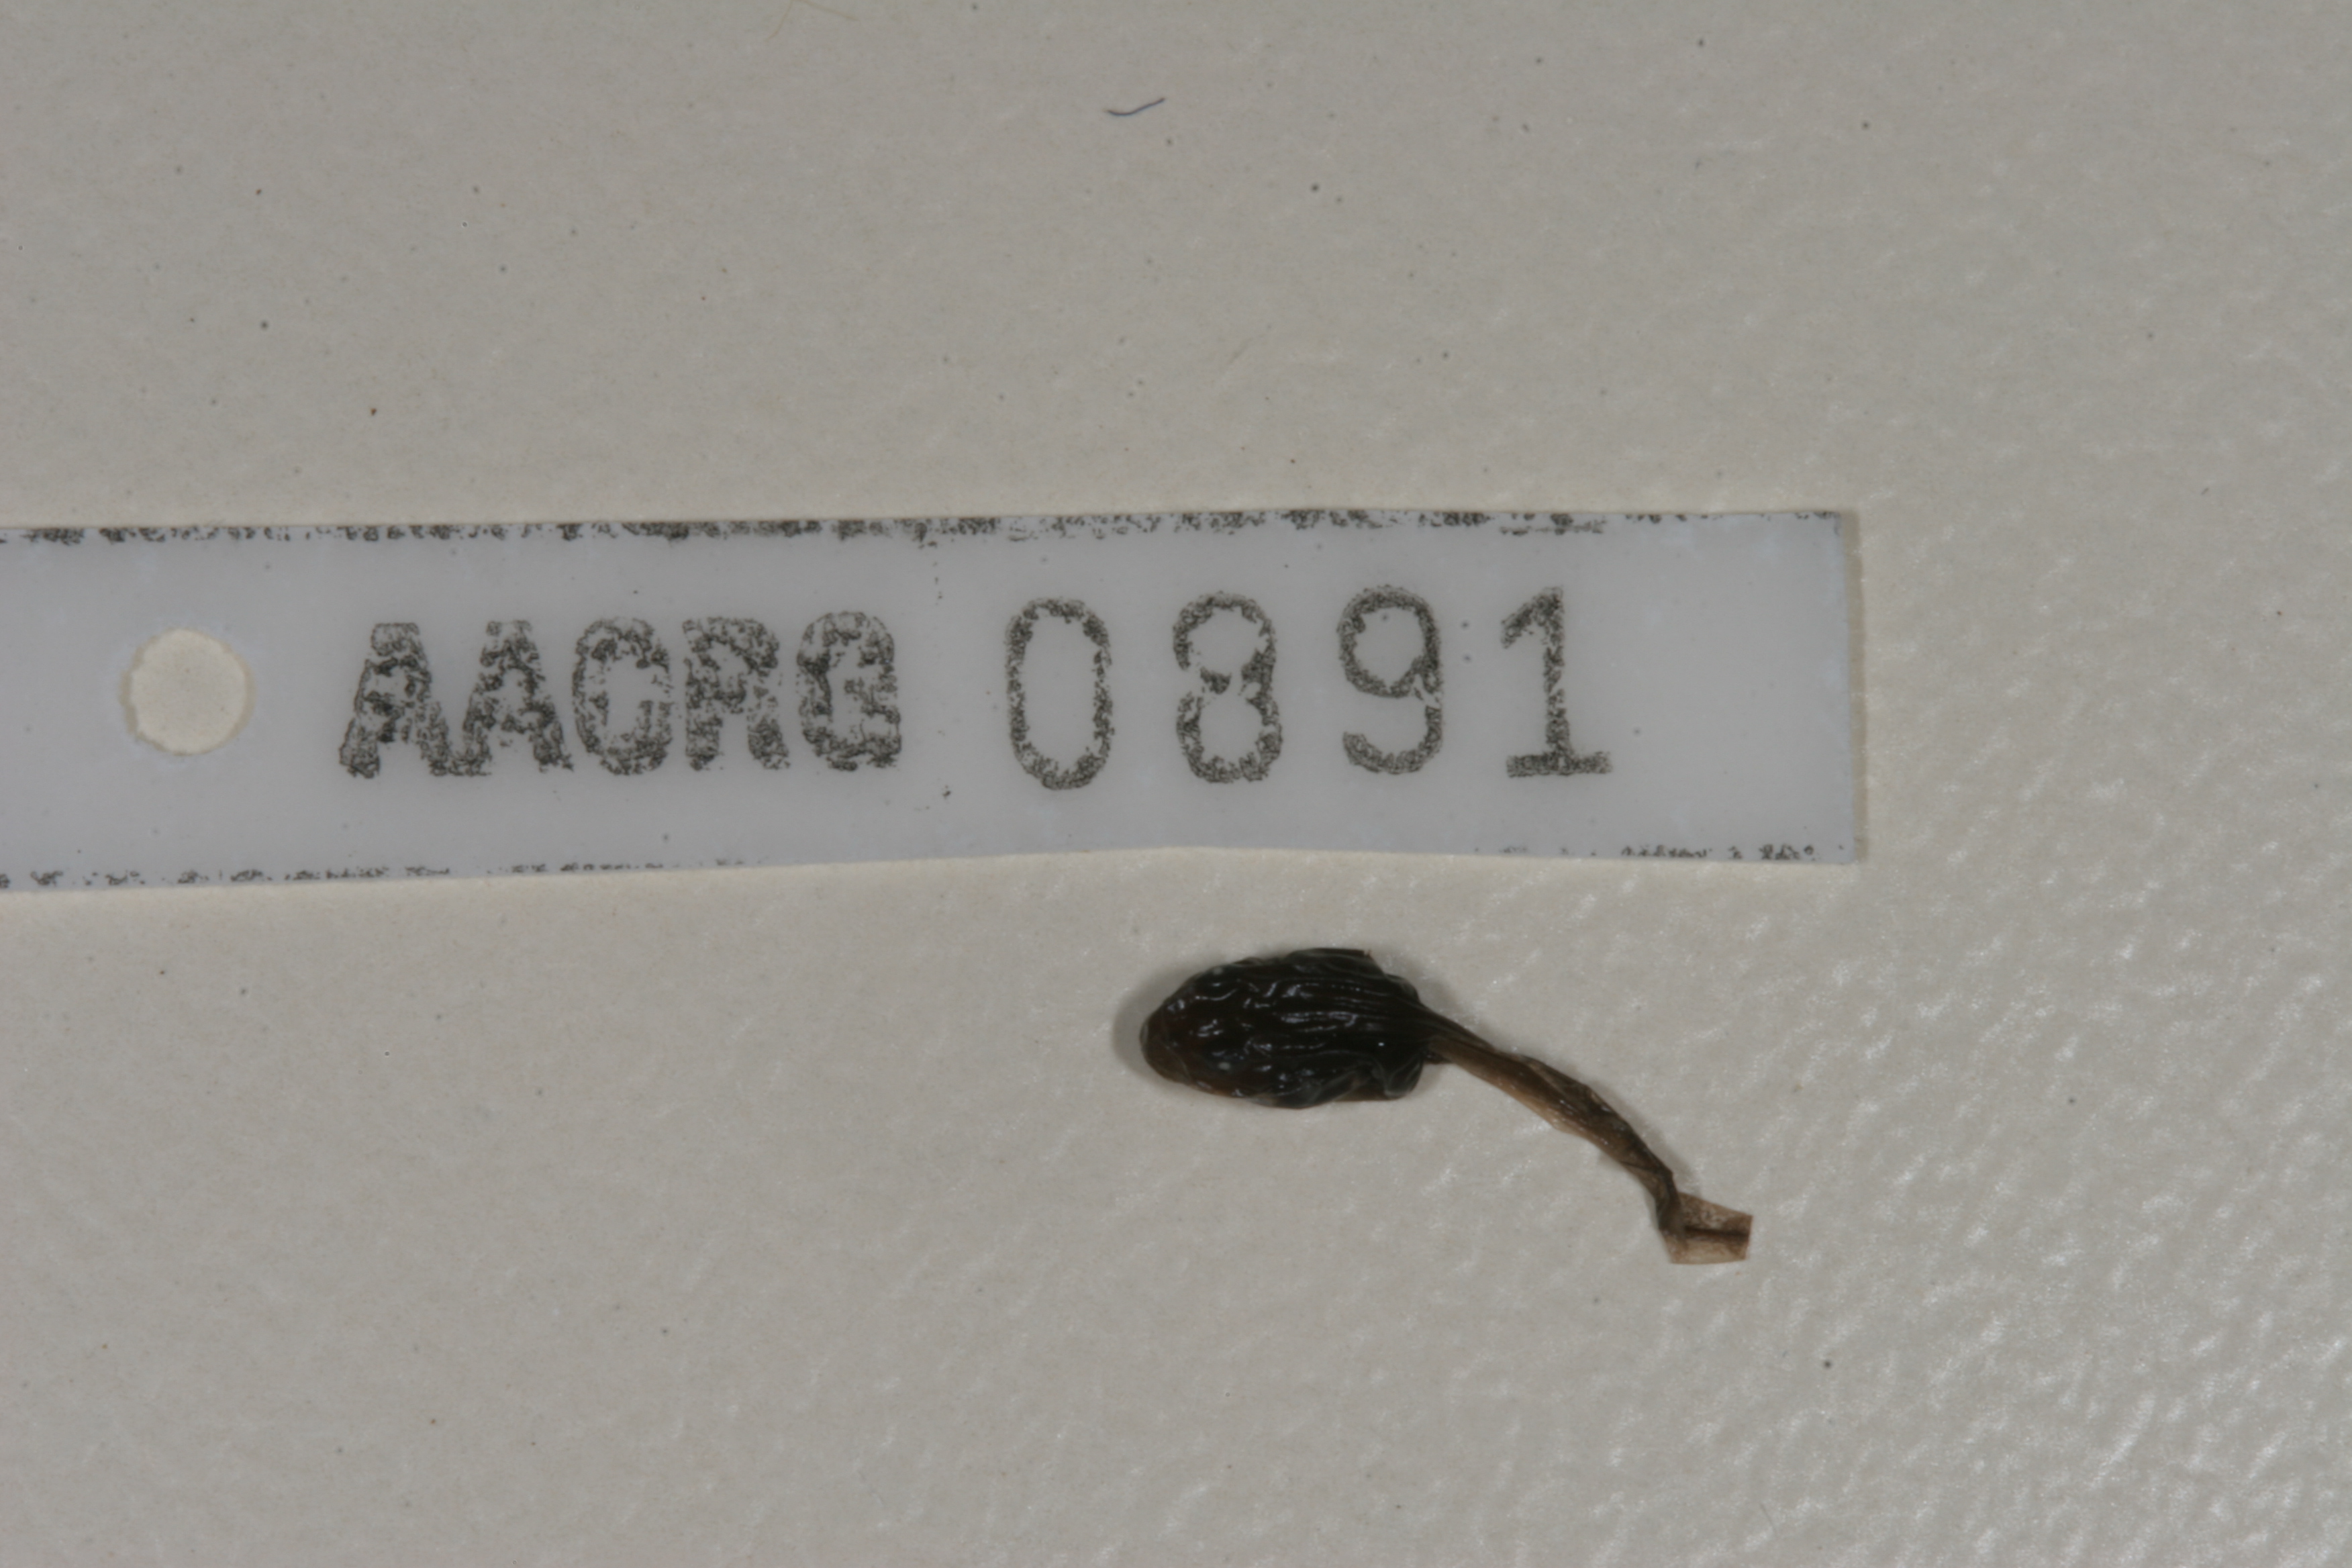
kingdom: Animalia
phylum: Chordata
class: Amphibia
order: Anura
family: Bufonidae
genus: Poyntonophrynus
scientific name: Poyntonophrynus fenoulheti
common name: Fenoulhet's toad
